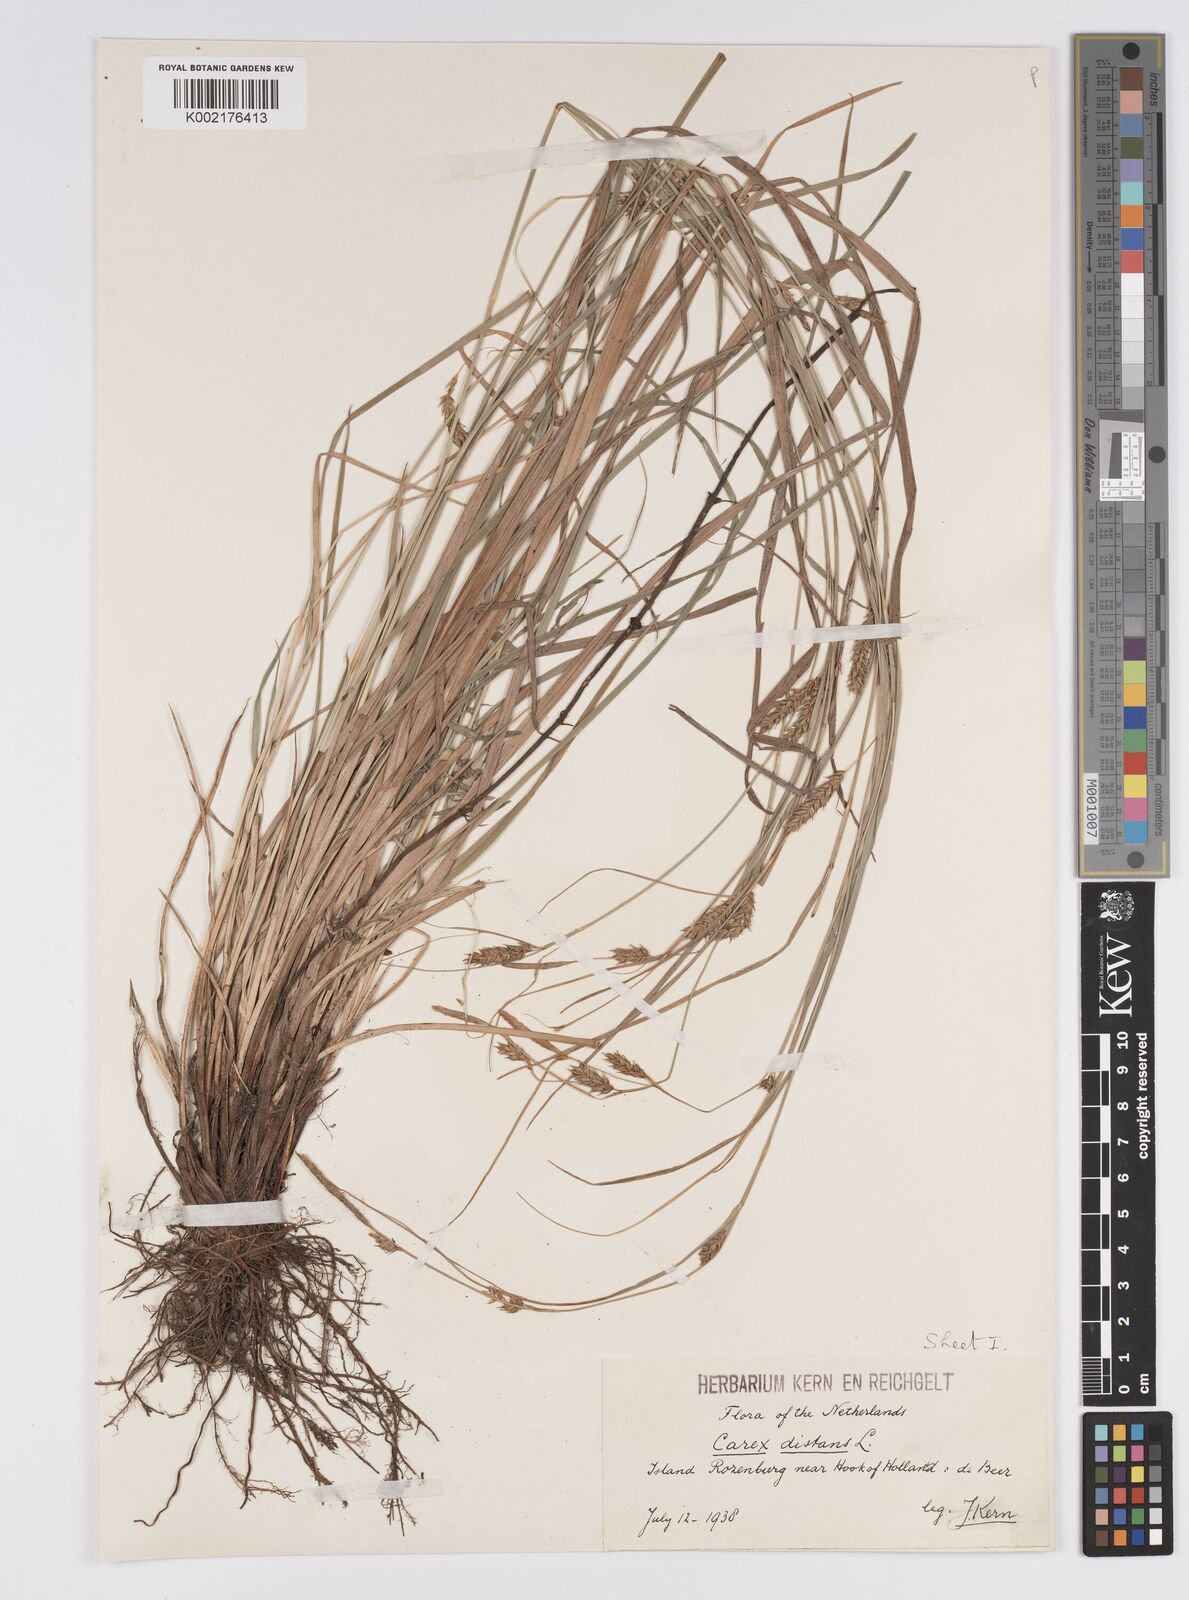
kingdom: Plantae
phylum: Tracheophyta
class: Liliopsida
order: Poales
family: Cyperaceae
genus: Carex
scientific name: Carex distans
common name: Distant sedge
